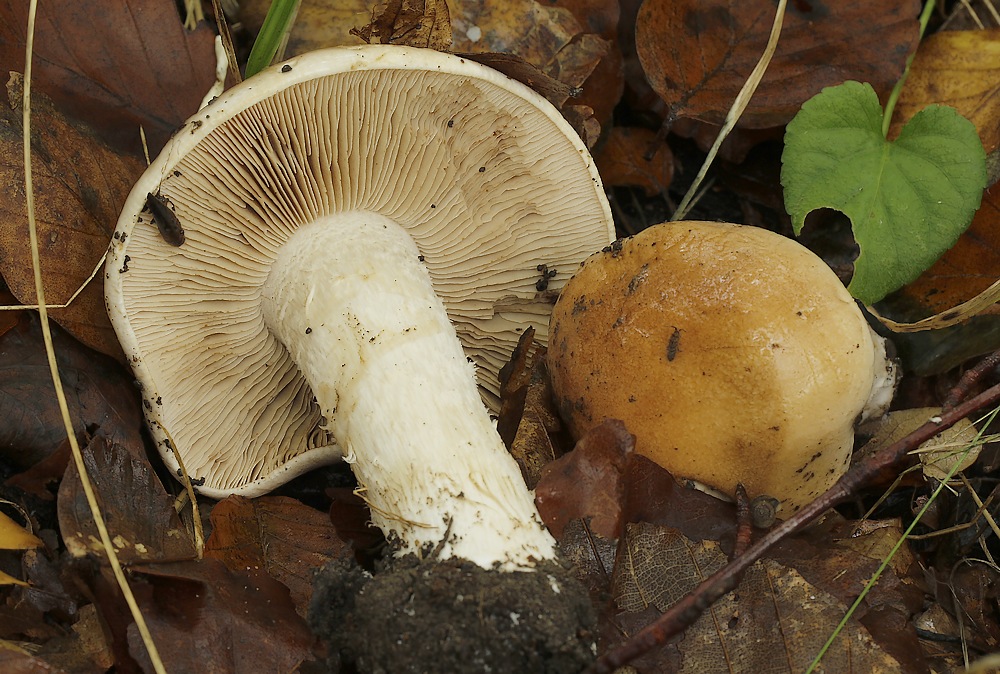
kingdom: Fungi
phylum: Basidiomycota
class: Agaricomycetes
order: Agaricales
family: Hymenogastraceae
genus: Hebeloma
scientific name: Hebeloma sinapizans
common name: ræddike-tåreblad
